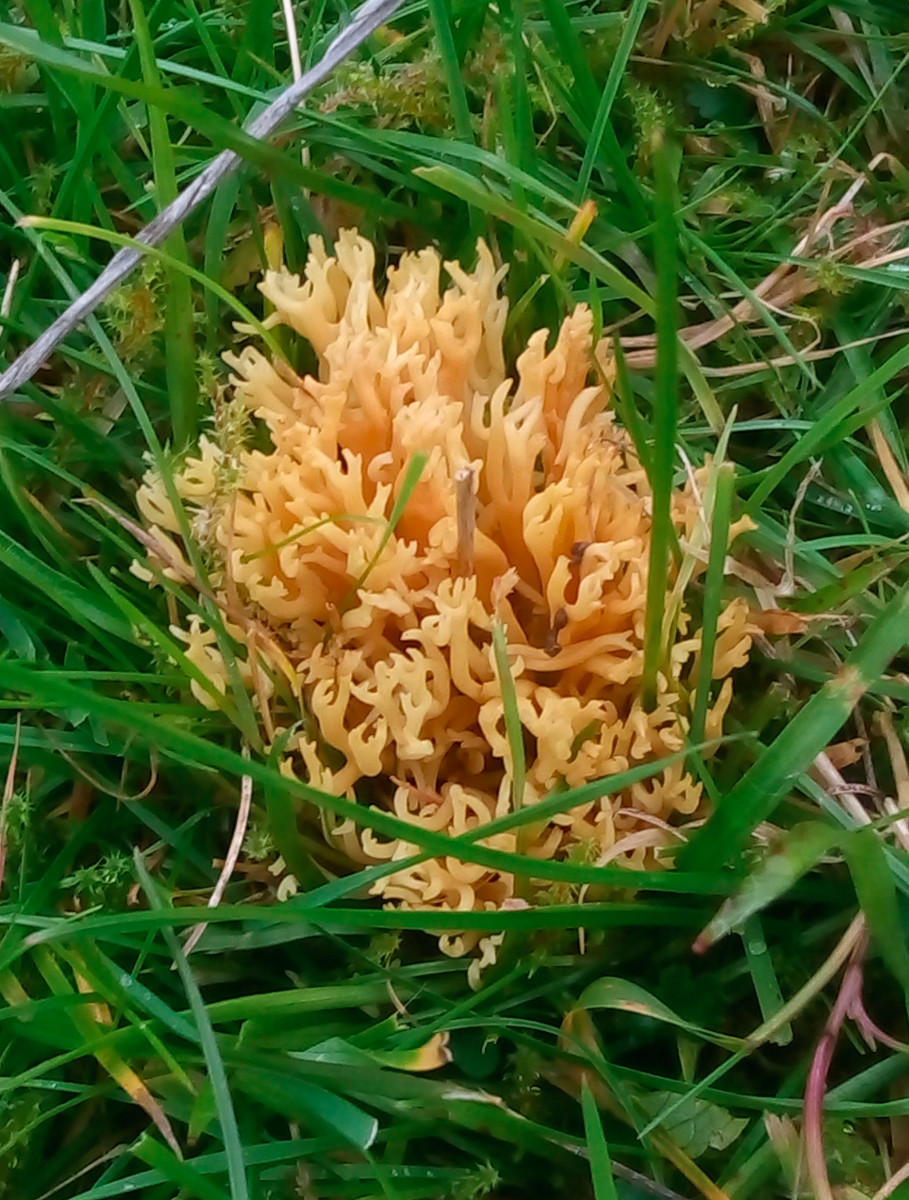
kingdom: Fungi
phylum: Basidiomycota
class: Agaricomycetes
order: Agaricales
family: Clavariaceae
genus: Clavulinopsis
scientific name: Clavulinopsis corniculata
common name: eng-køllesvamp
